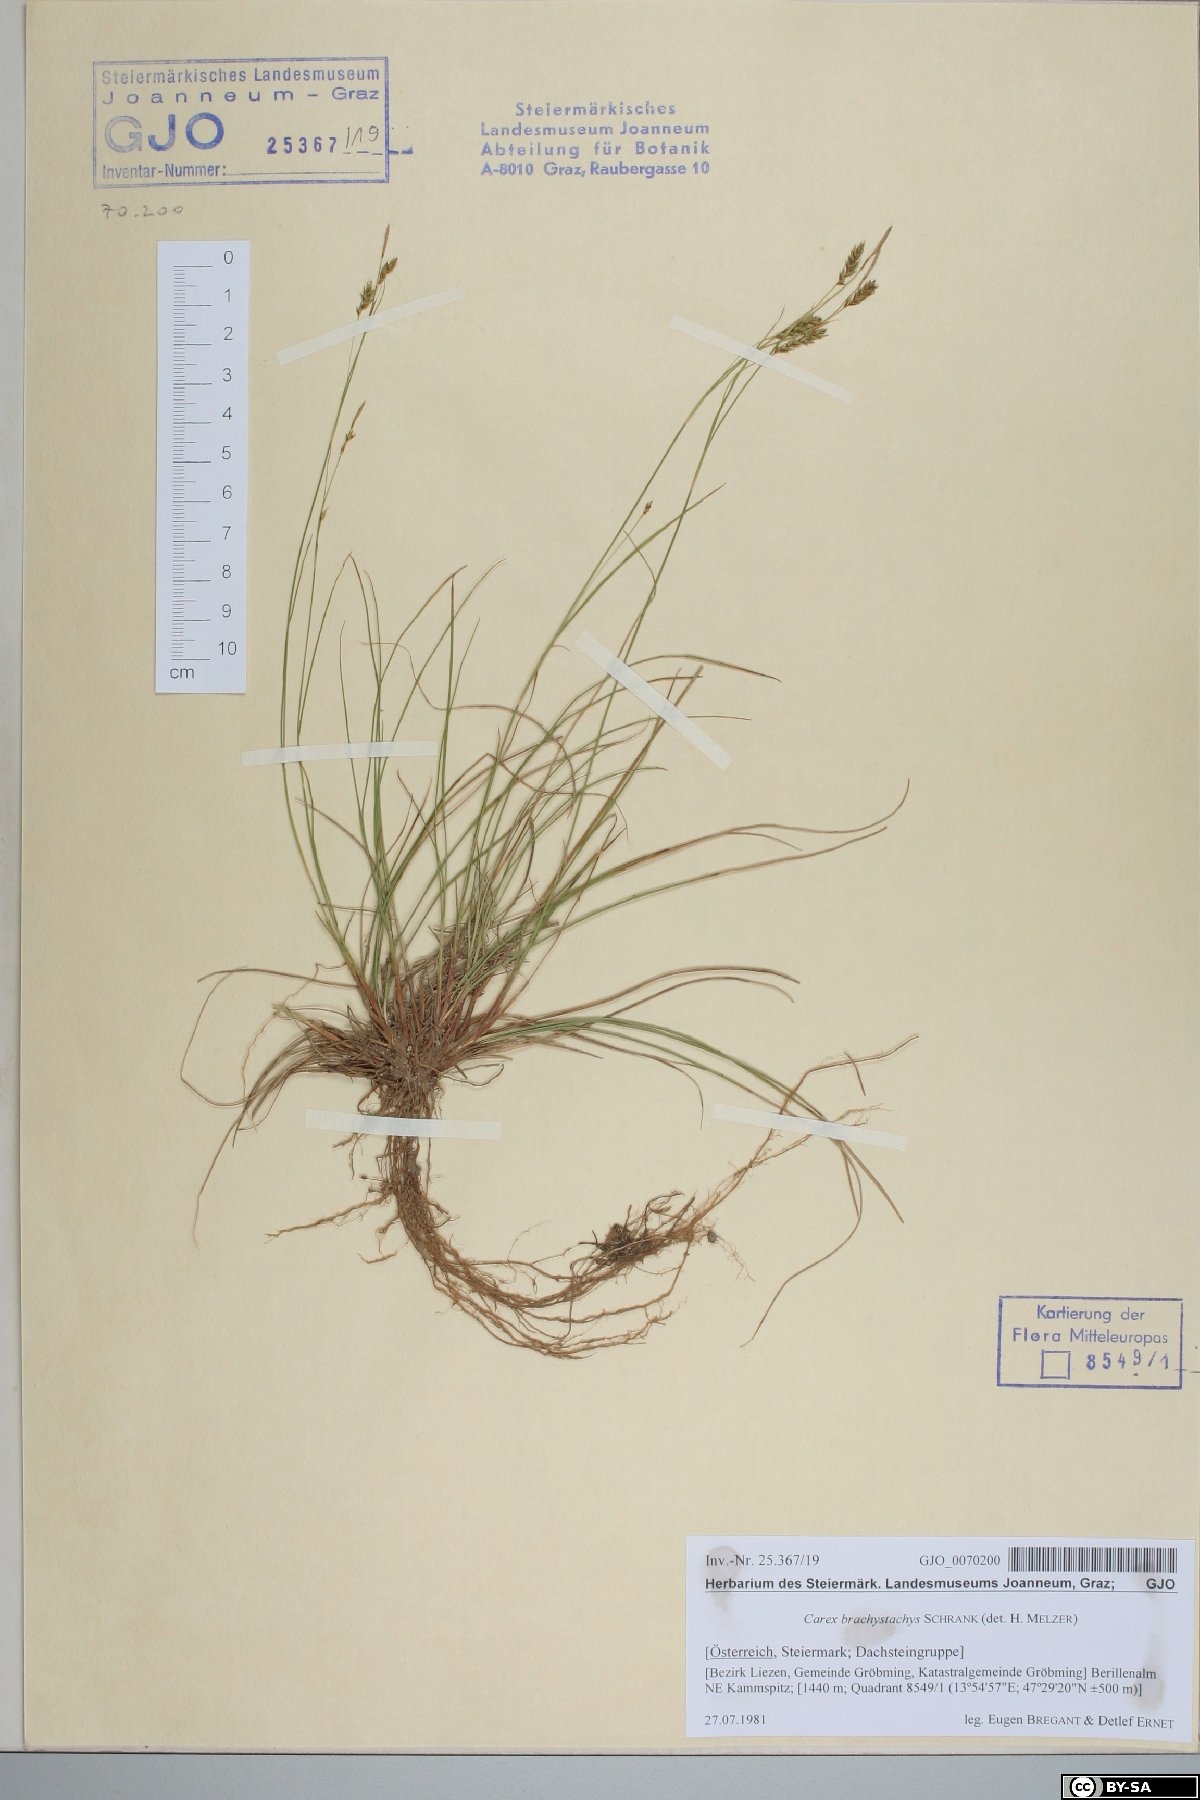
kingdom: Plantae
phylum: Tracheophyta
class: Liliopsida
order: Poales
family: Cyperaceae
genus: Carex
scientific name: Carex brachystachys
